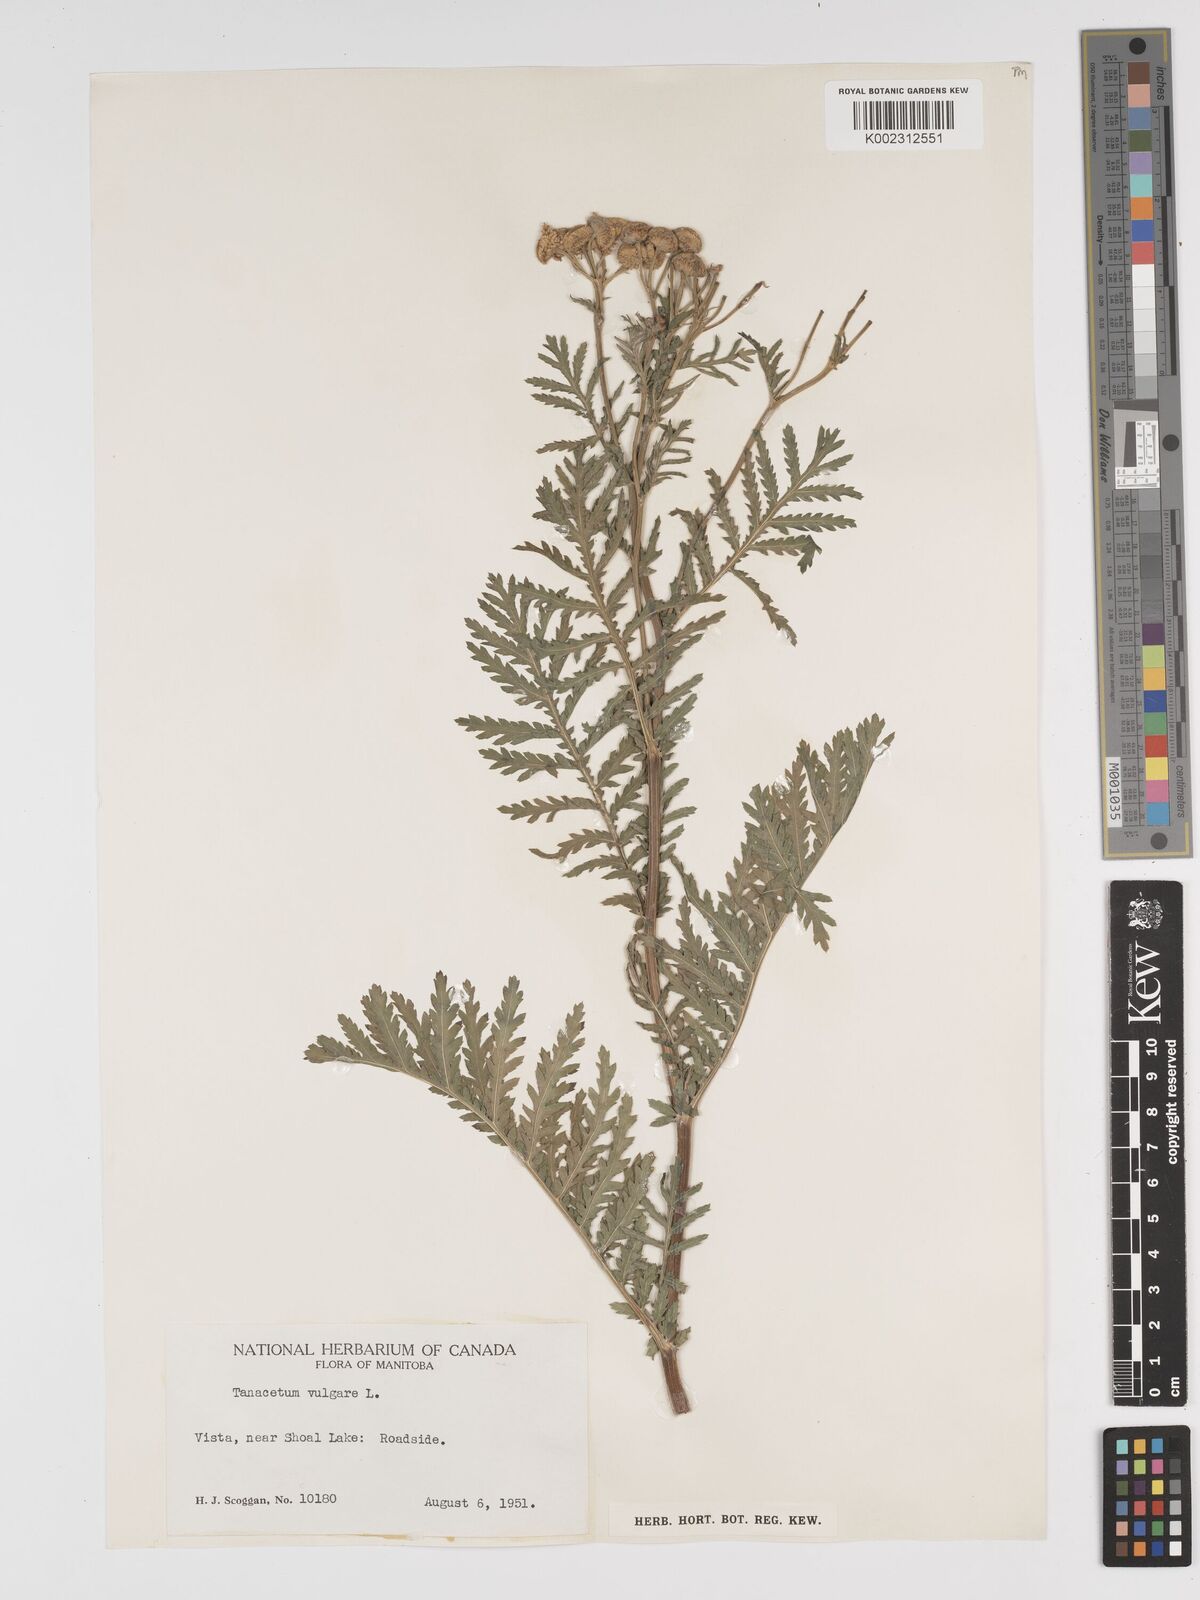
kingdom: Plantae
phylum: Tracheophyta
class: Magnoliopsida
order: Asterales
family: Asteraceae
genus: Tanacetum
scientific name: Tanacetum vulgare
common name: Common tansy
